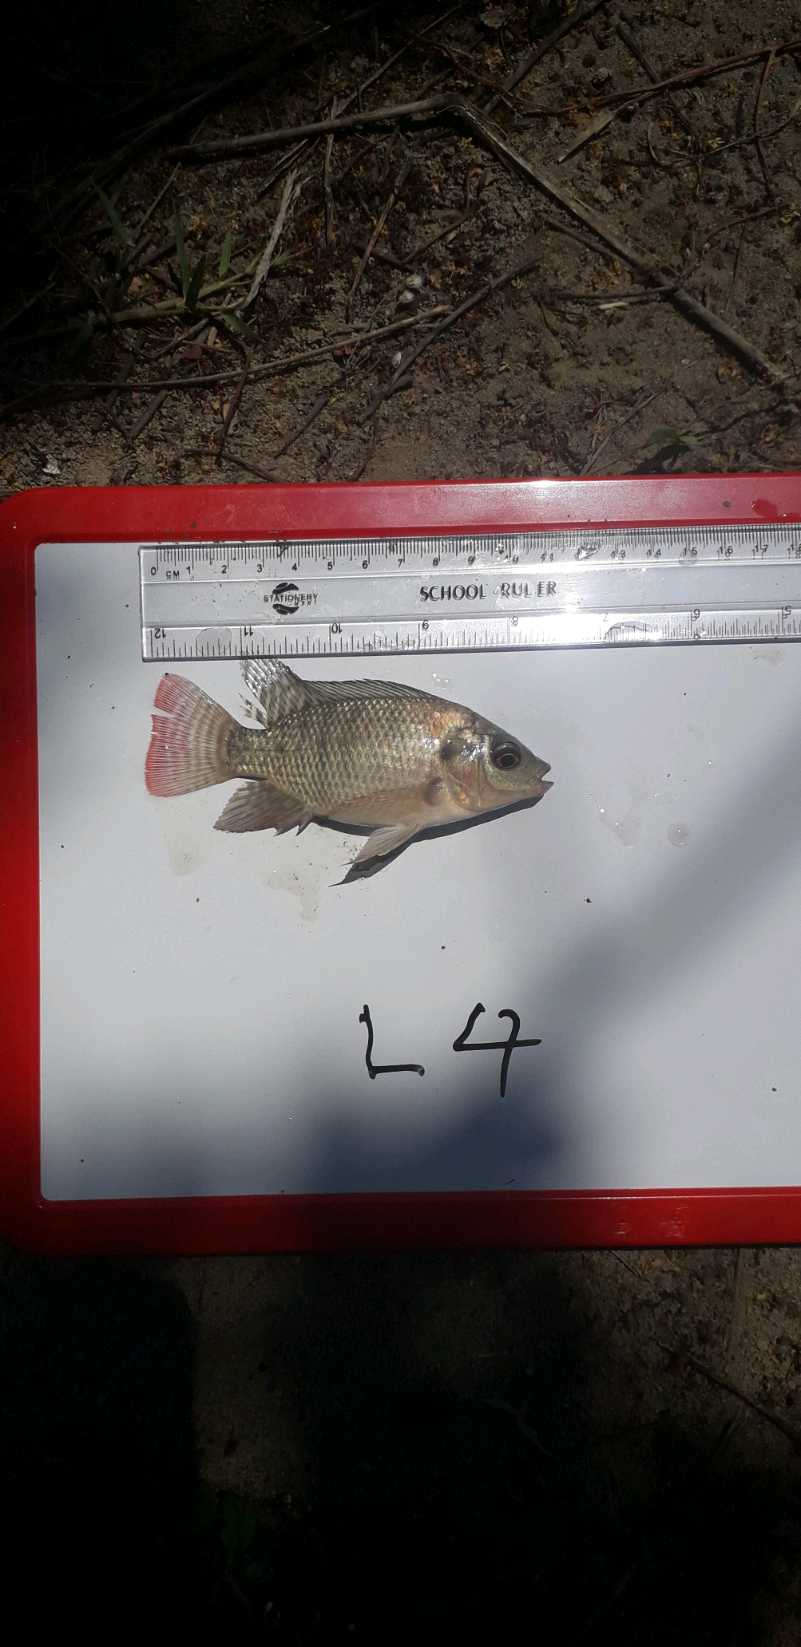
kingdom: Animalia
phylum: Chordata
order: Perciformes
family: Cichlidae
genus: Oreochromis
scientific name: Oreochromis niloticus
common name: Nile tilapia
